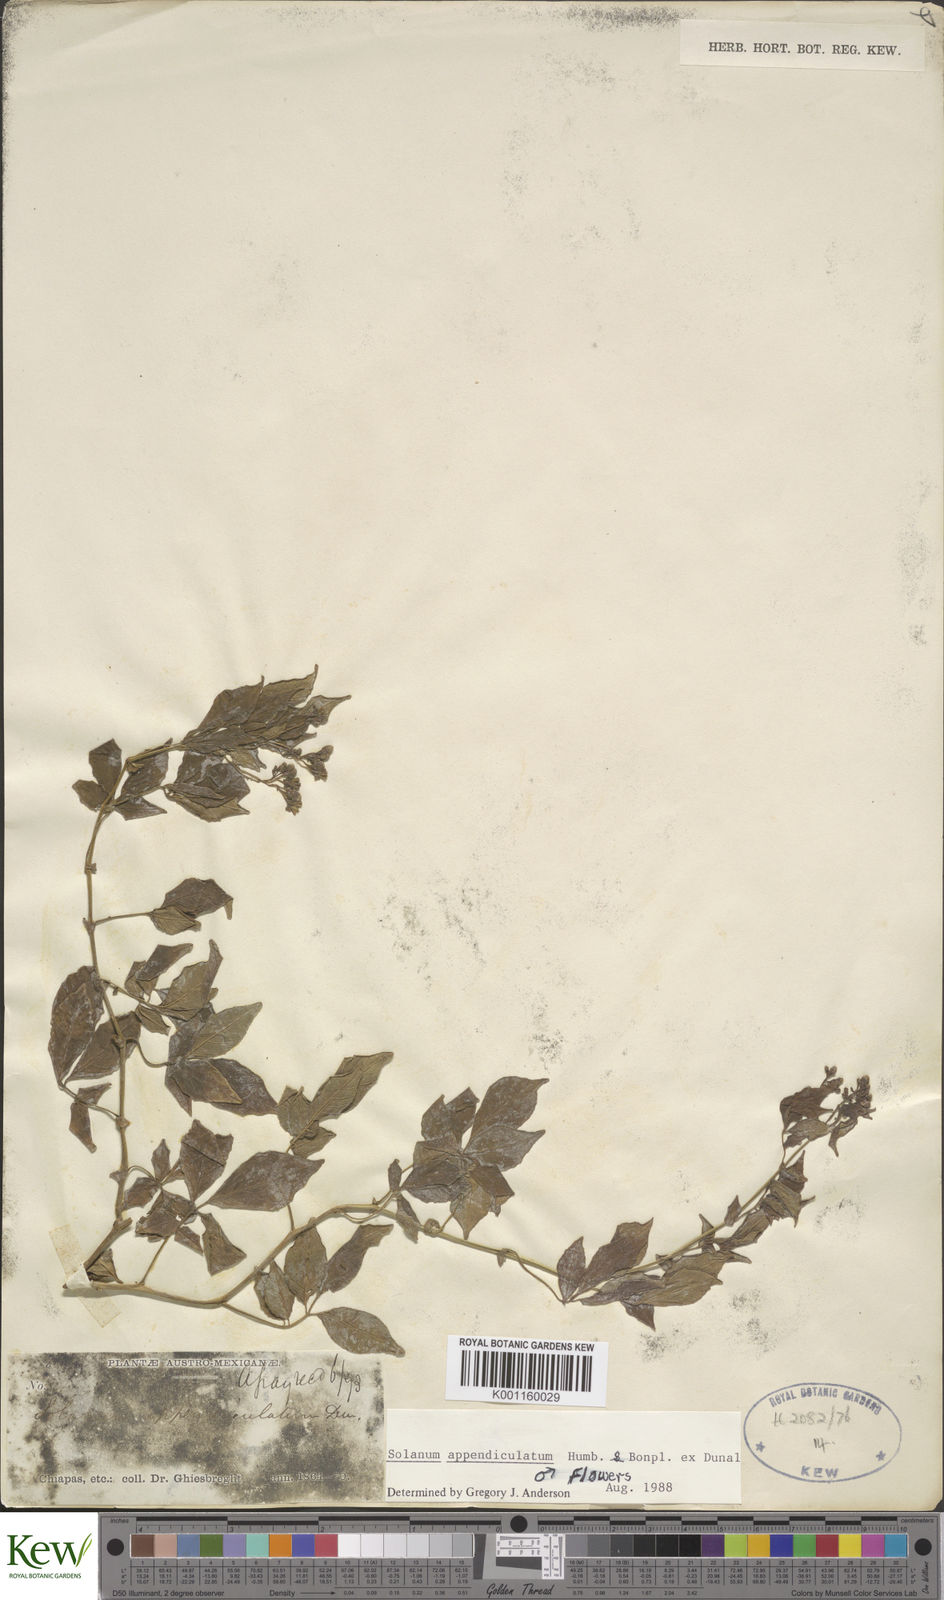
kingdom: Plantae
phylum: Tracheophyta
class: Magnoliopsida
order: Solanales
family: Solanaceae
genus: Solanum
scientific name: Solanum appendiculatum
